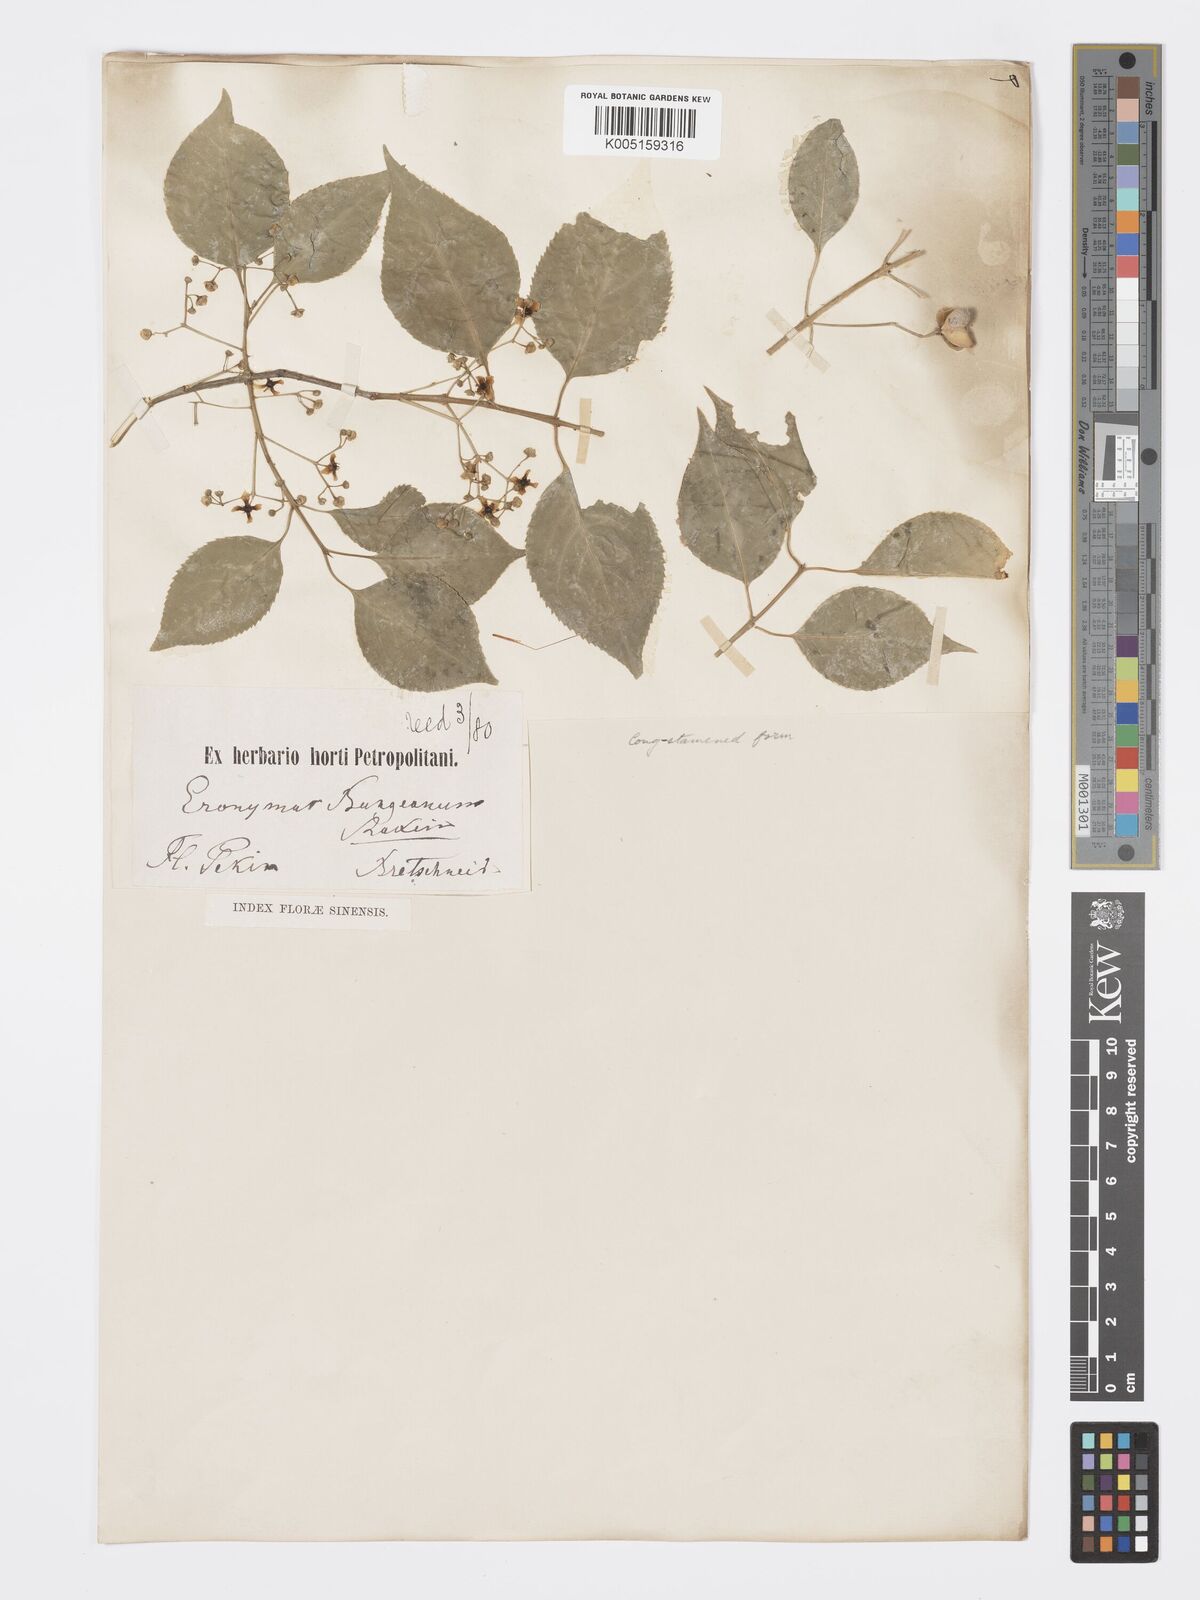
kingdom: Plantae
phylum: Tracheophyta
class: Magnoliopsida
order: Celastrales
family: Celastraceae
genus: Euonymus
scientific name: Euonymus maackii
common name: Hamilton's spindletree
